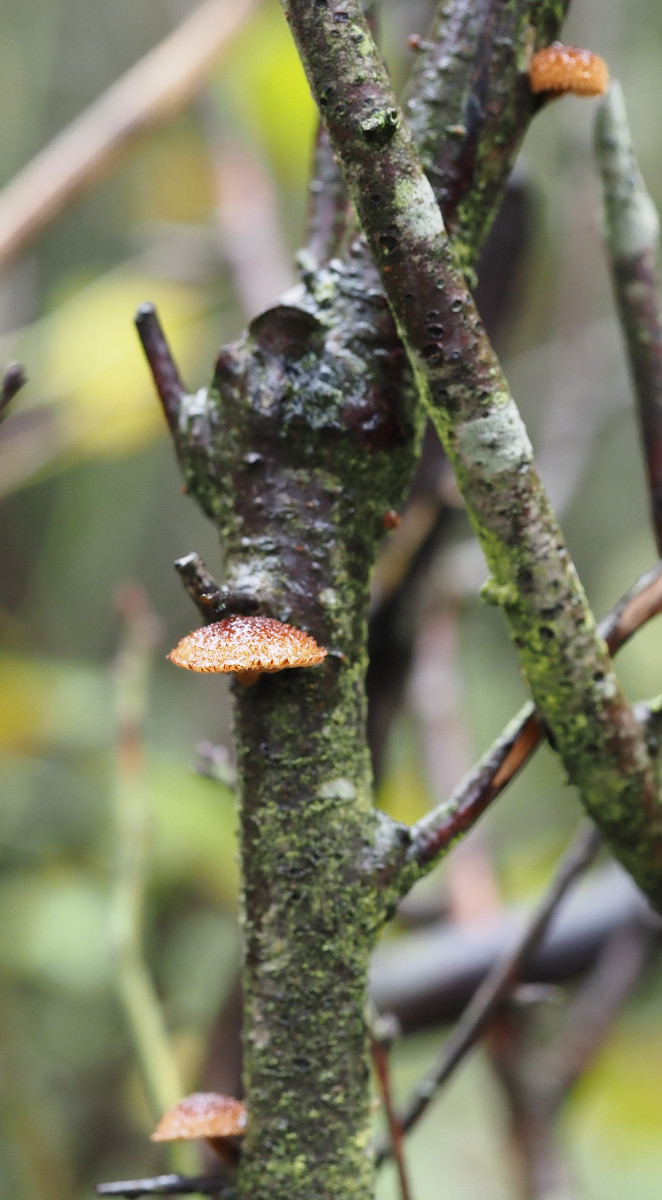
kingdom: Fungi
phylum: Basidiomycota
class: Agaricomycetes
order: Agaricales
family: Tubariaceae
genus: Phaeomarasmius
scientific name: Phaeomarasmius erinaceus
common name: spidsskælhat
